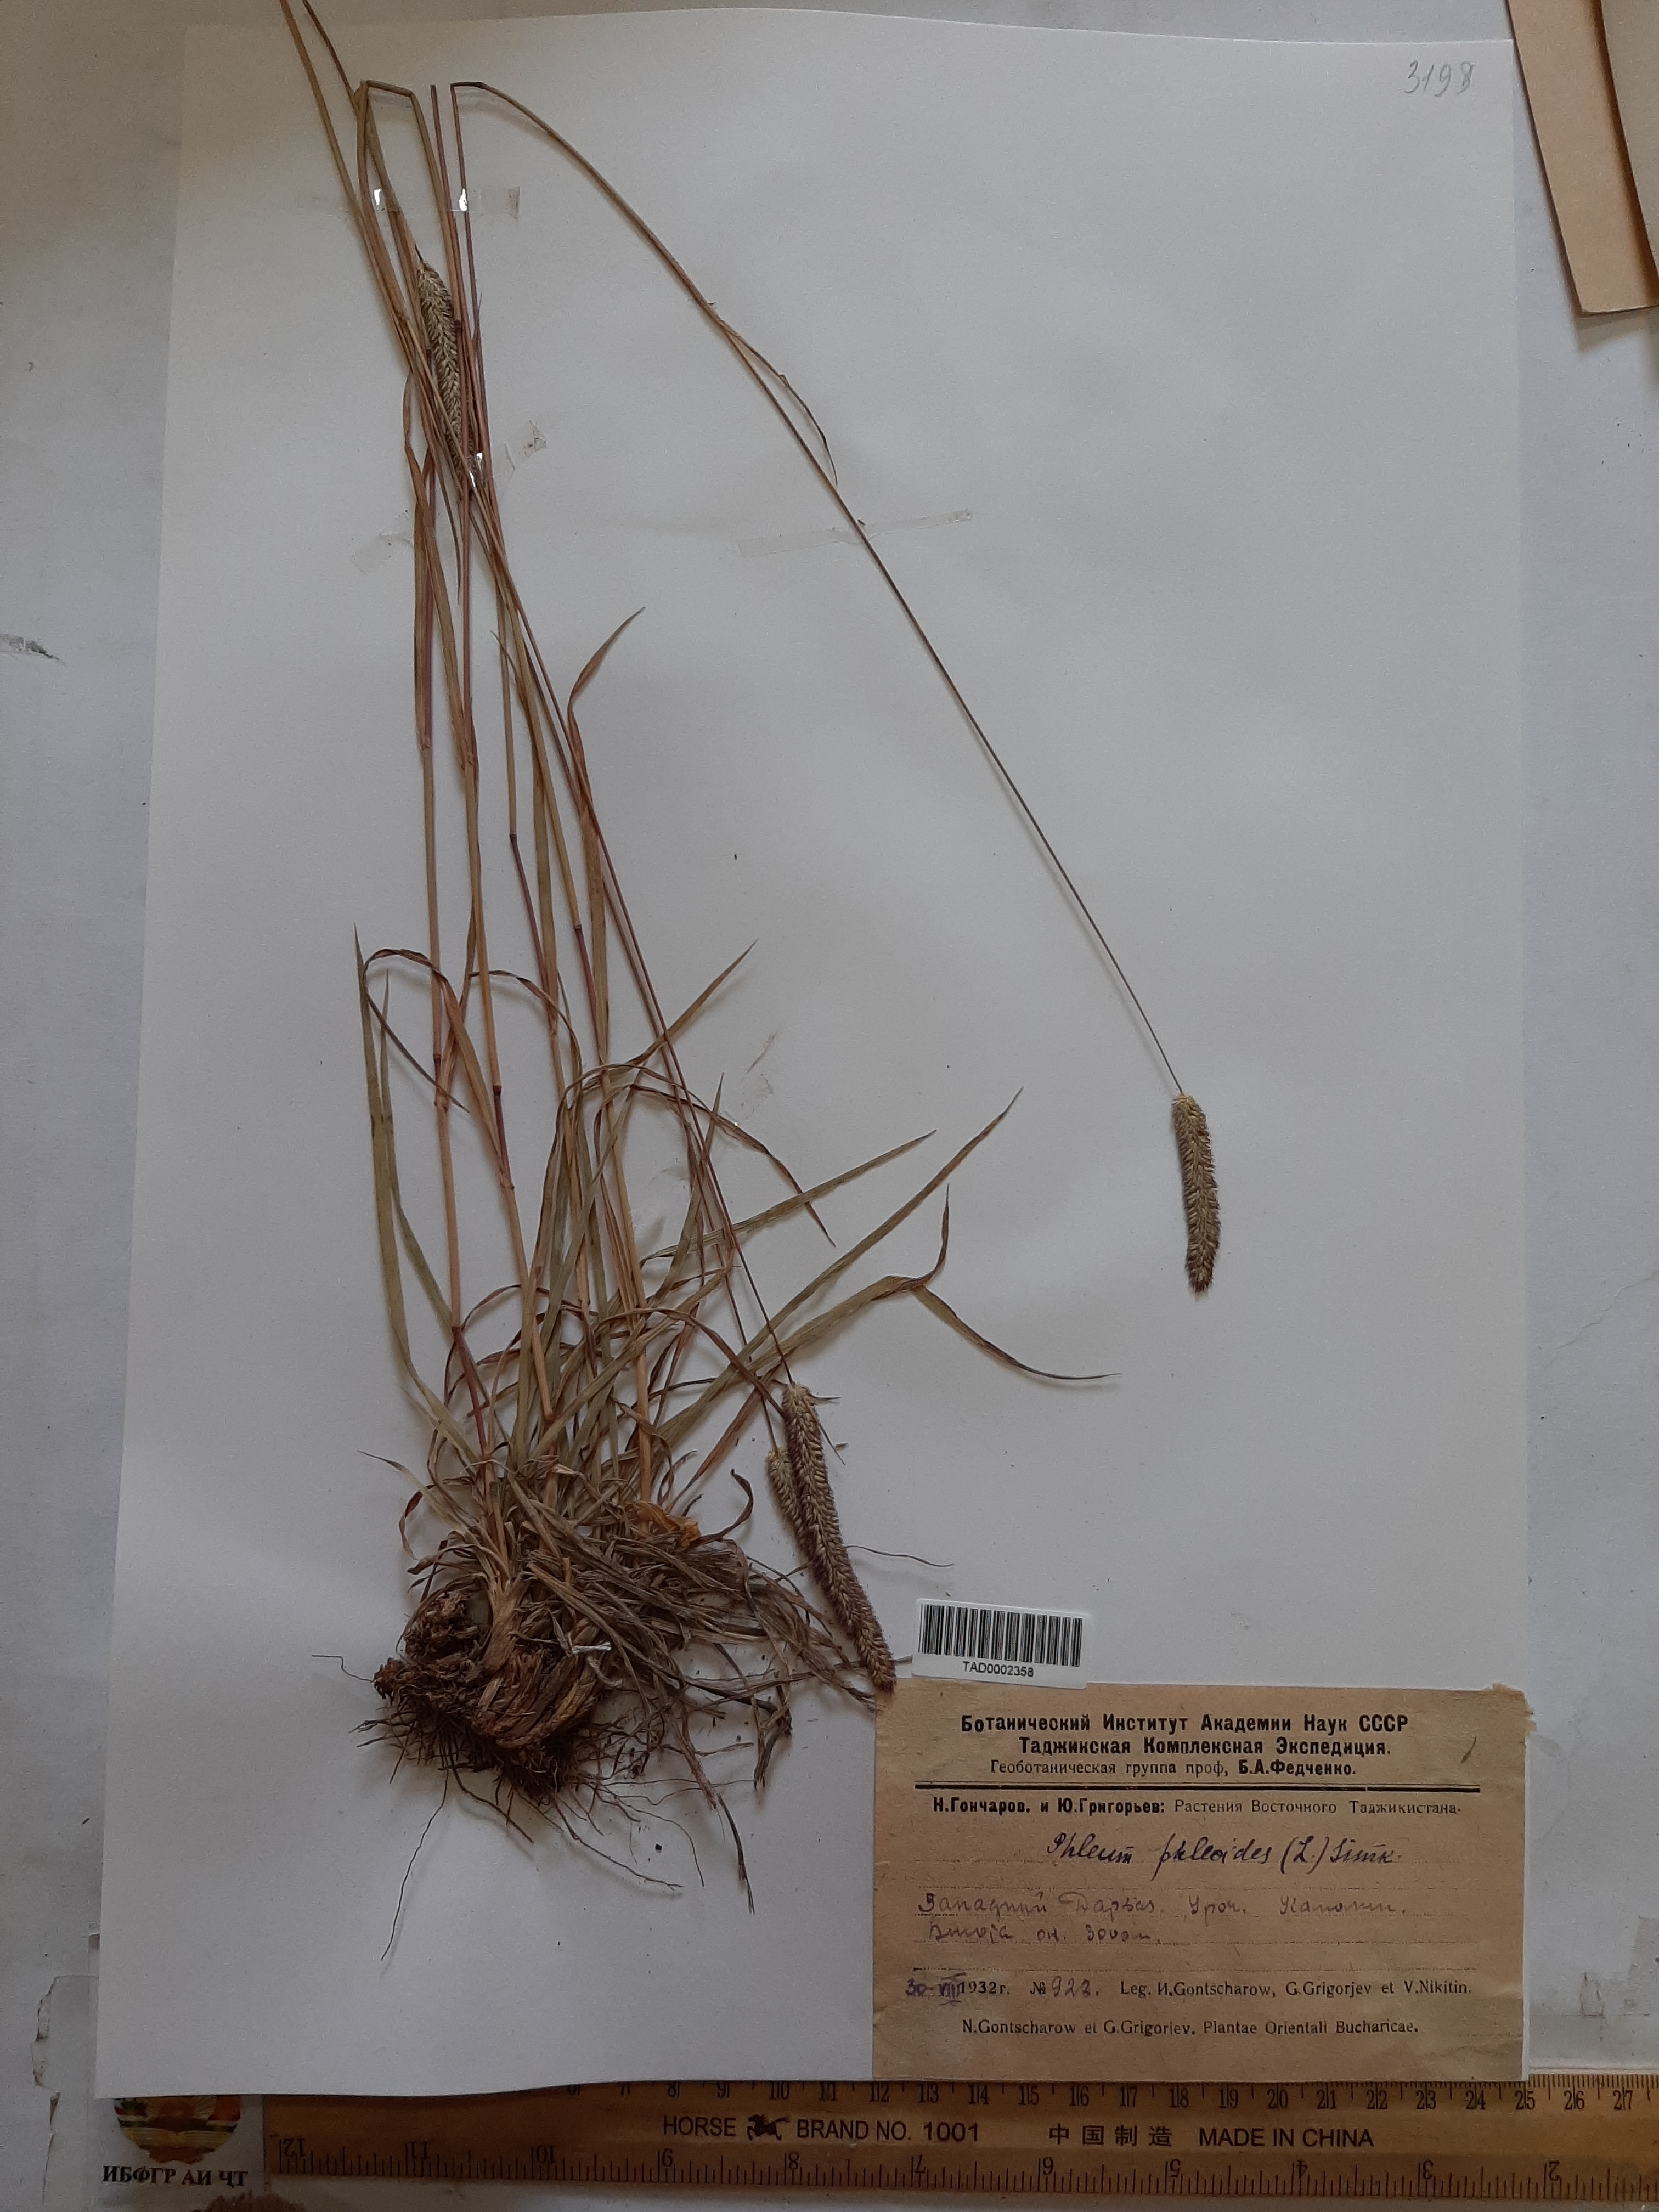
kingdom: Plantae
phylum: Tracheophyta
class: Liliopsida
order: Poales
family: Poaceae
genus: Phleum
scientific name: Phleum phleoides
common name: Purple-stem cat's-tail
